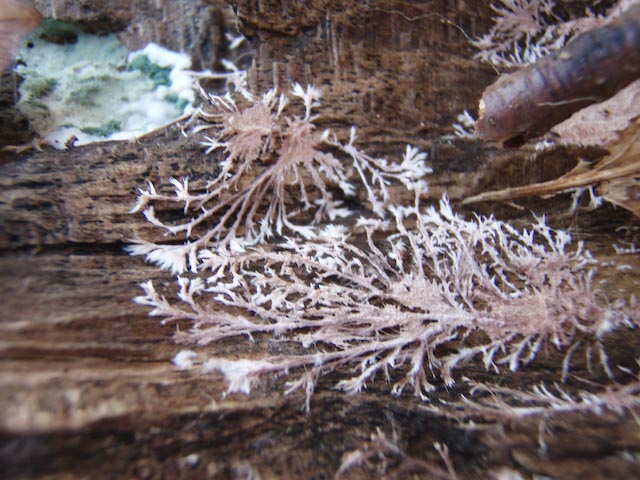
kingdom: Fungi
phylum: Basidiomycota
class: Agaricomycetes
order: Polyporales
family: Steccherinaceae
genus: Steccherinum
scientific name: Steccherinum fimbriatum
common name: trådet skønpig
